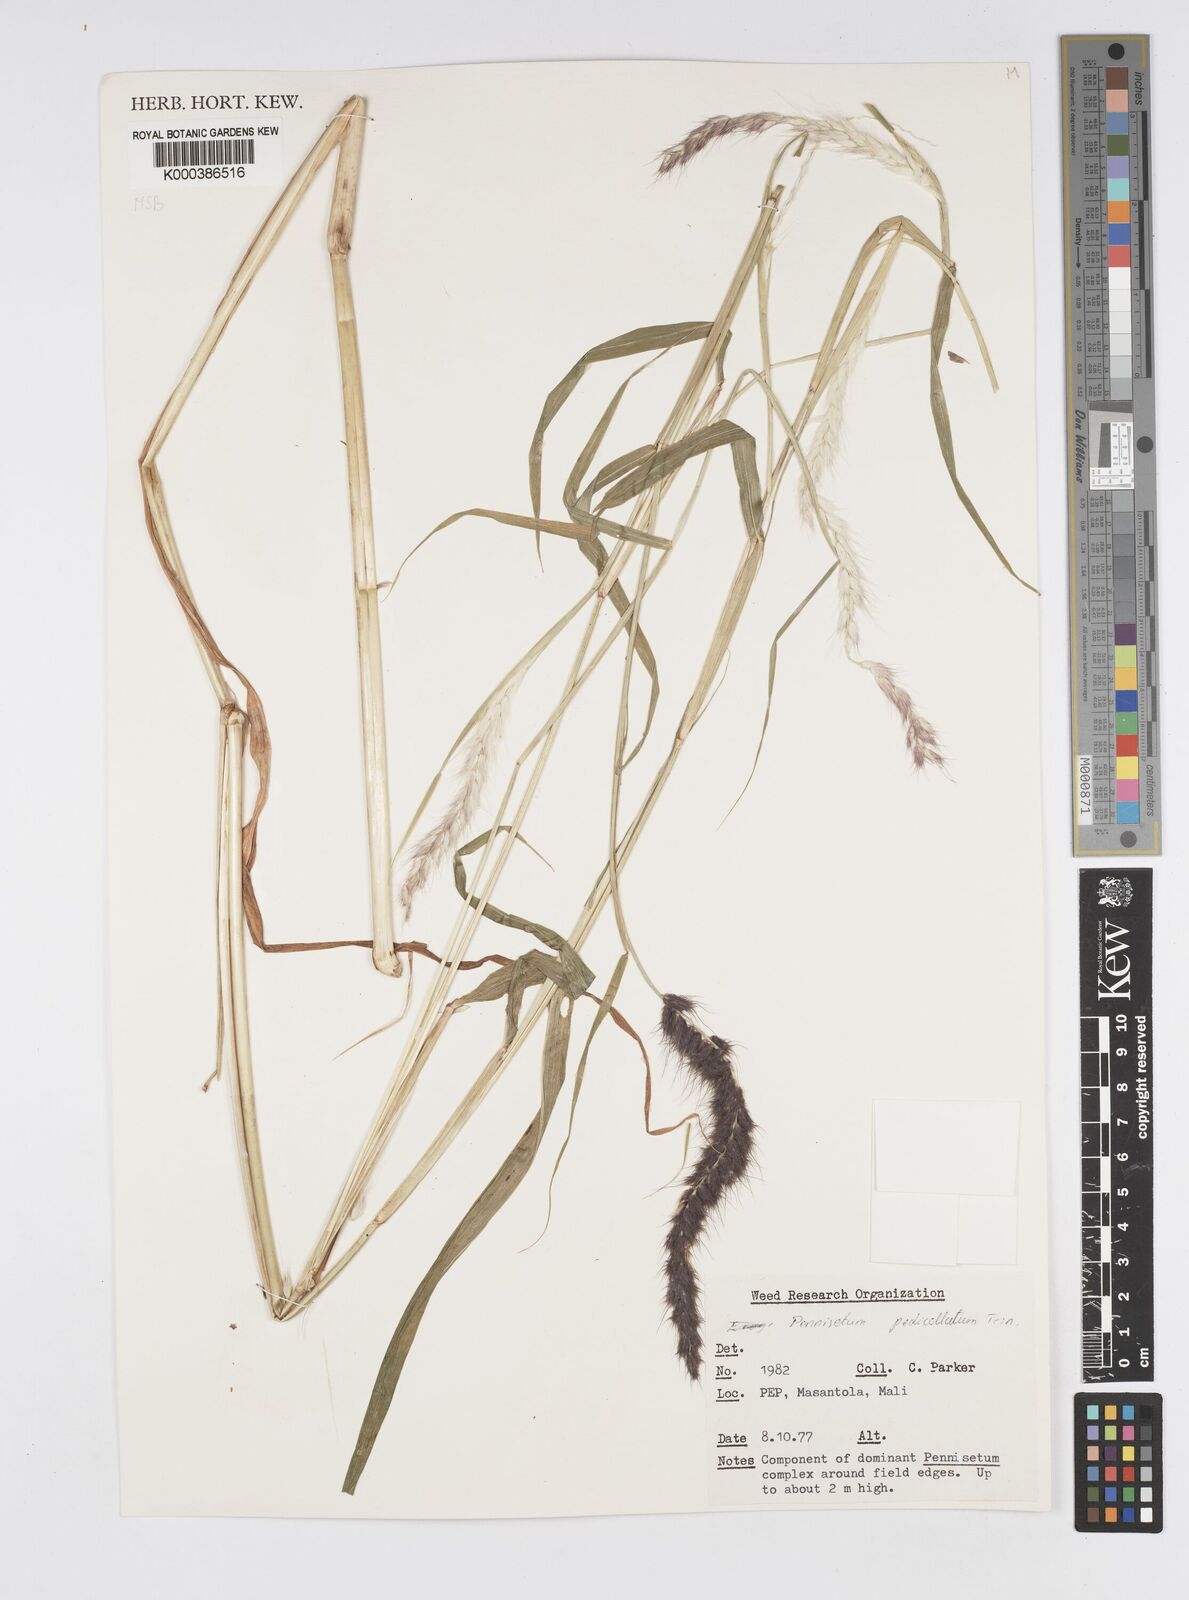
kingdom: Plantae
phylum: Tracheophyta
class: Liliopsida
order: Poales
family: Poaceae
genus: Cenchrus
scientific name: Cenchrus pedicellatus
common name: Hairy fountain grass
